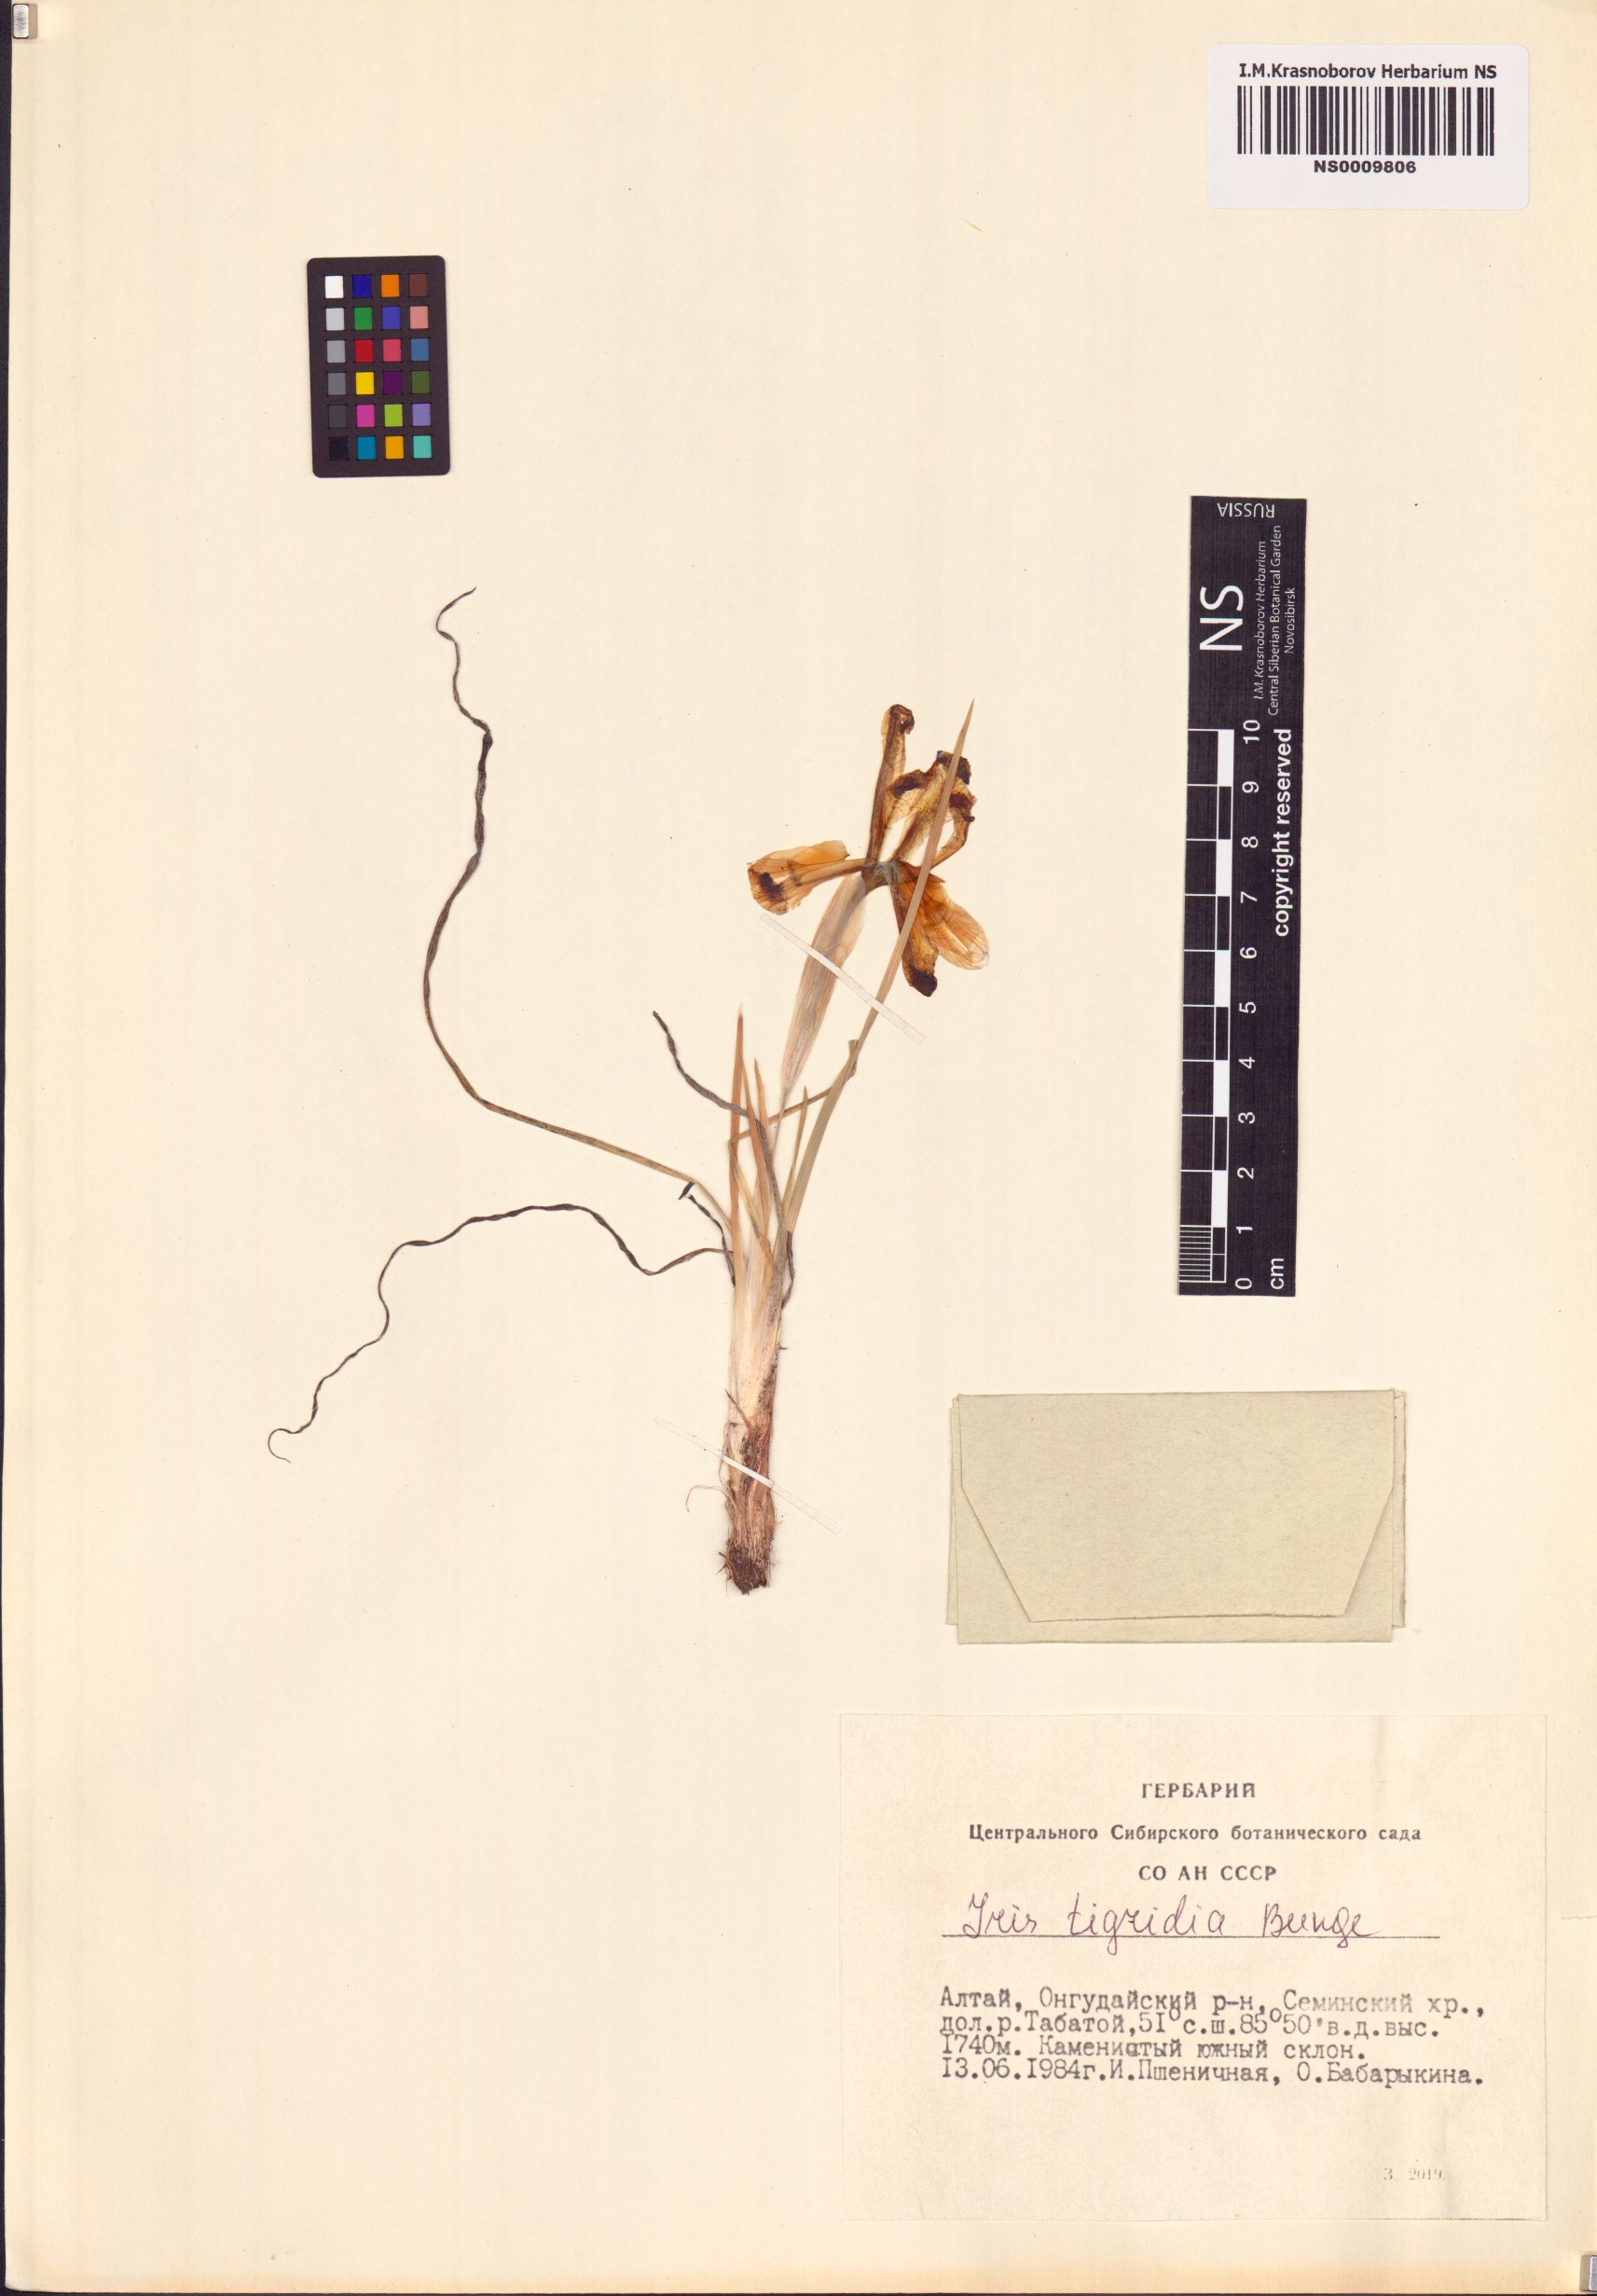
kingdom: Plantae
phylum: Tracheophyta
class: Liliopsida
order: Asparagales
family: Iridaceae
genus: Iris
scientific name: Iris tigridia
